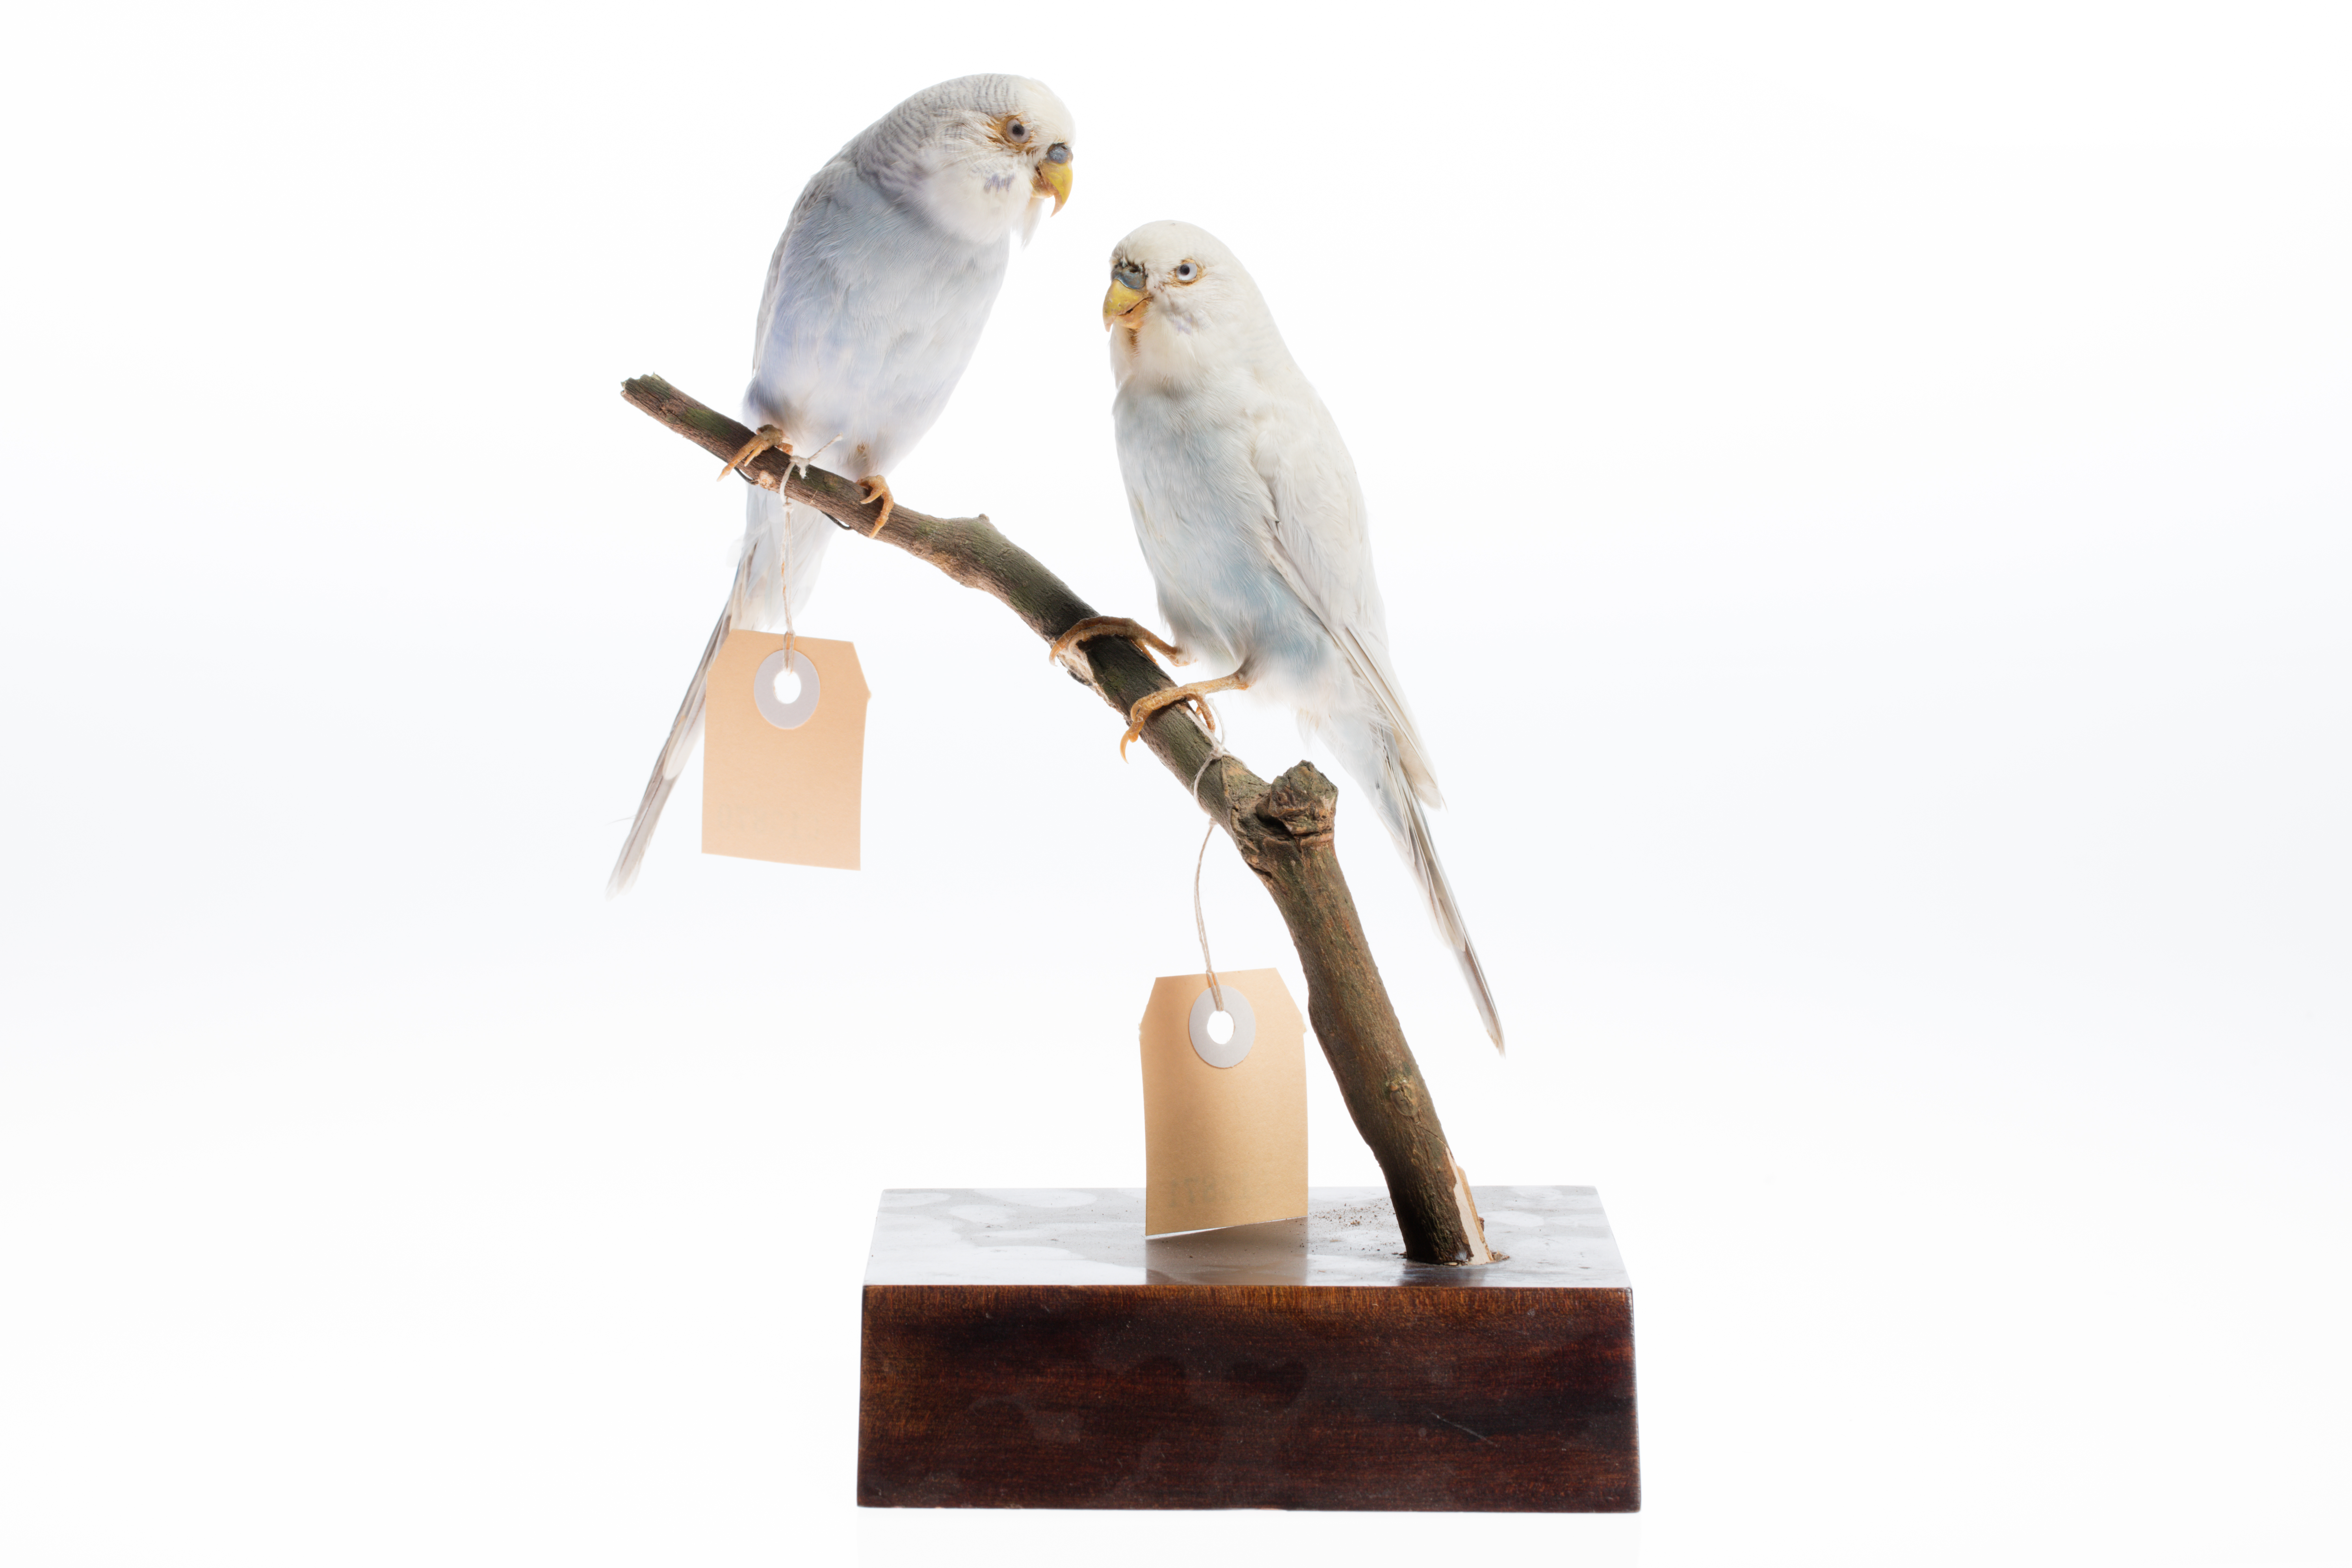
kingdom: Animalia
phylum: Chordata
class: Aves
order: Psittaciformes
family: Psittacidae
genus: Melopsittacus
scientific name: Melopsittacus undulatus
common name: Budgerigar
